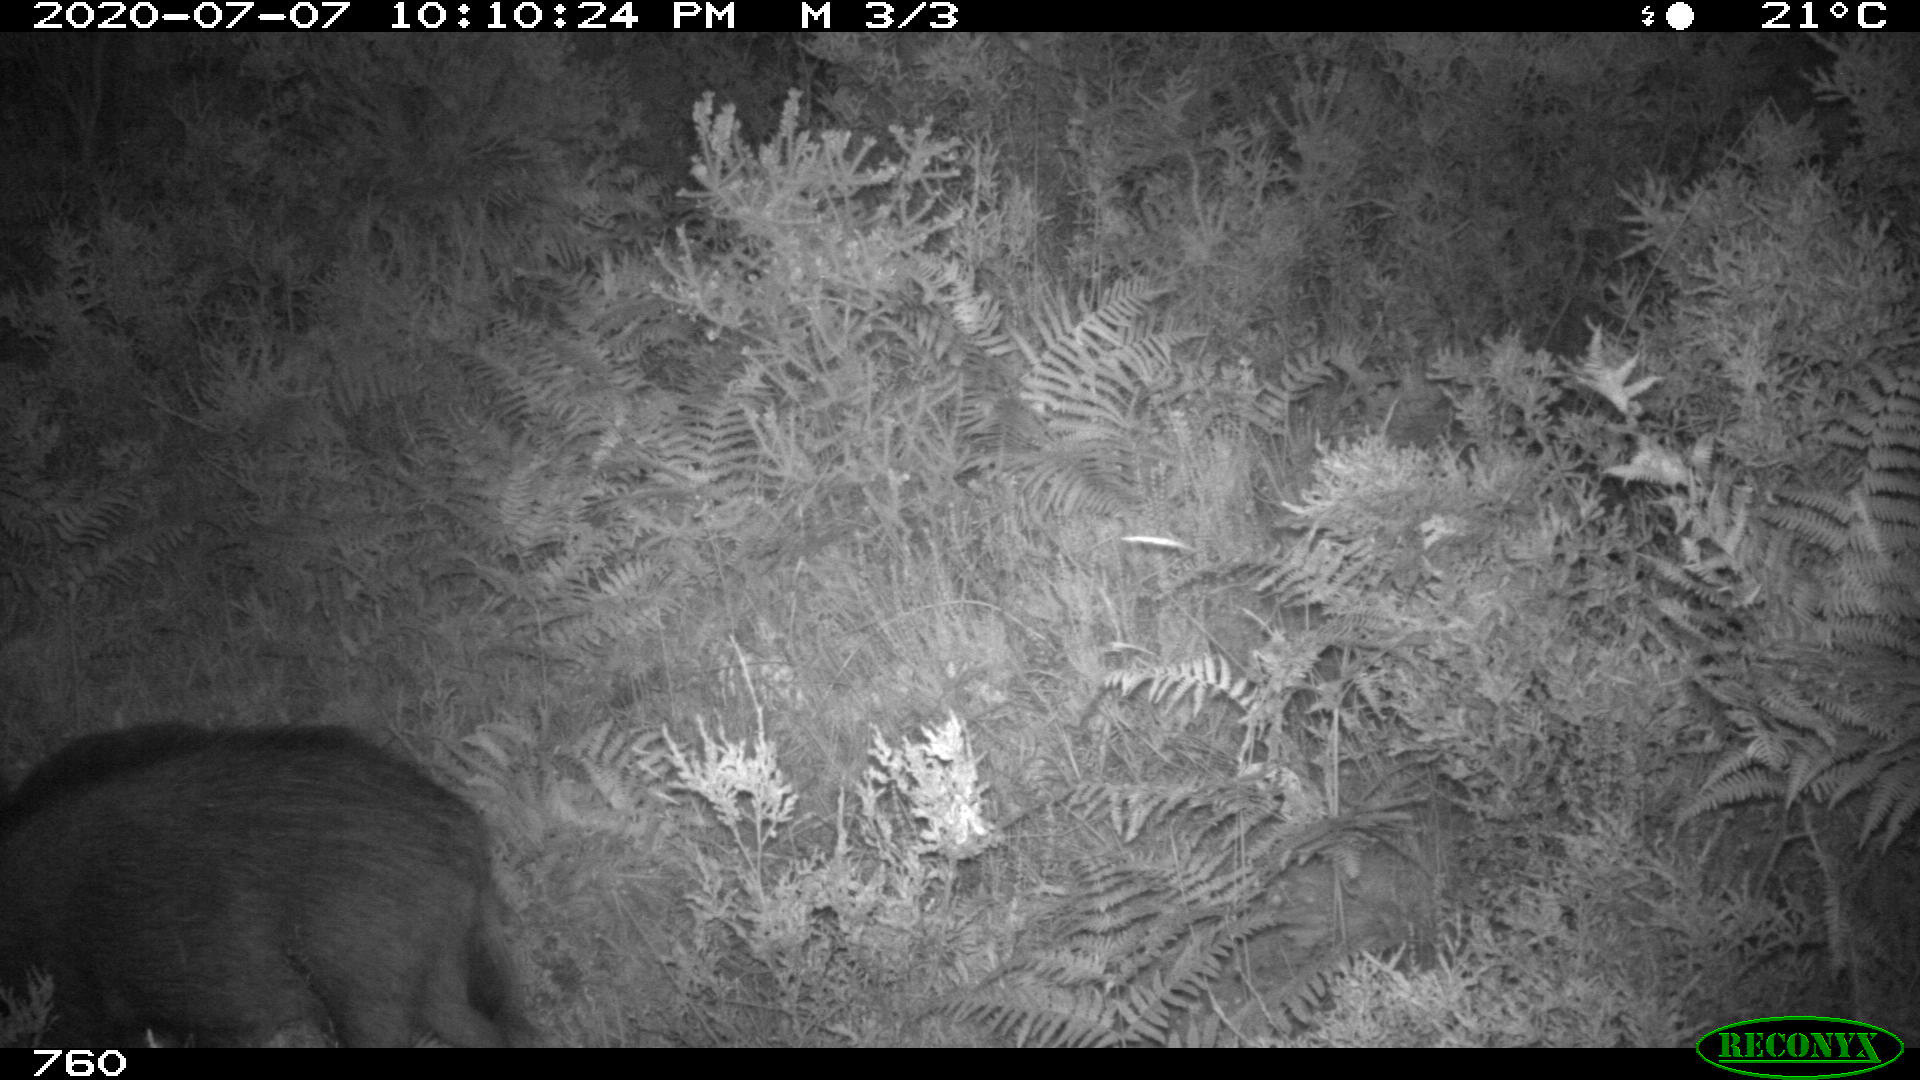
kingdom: Animalia
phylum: Chordata
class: Mammalia
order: Artiodactyla
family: Suidae
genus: Sus
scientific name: Sus scrofa
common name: Wild boar
